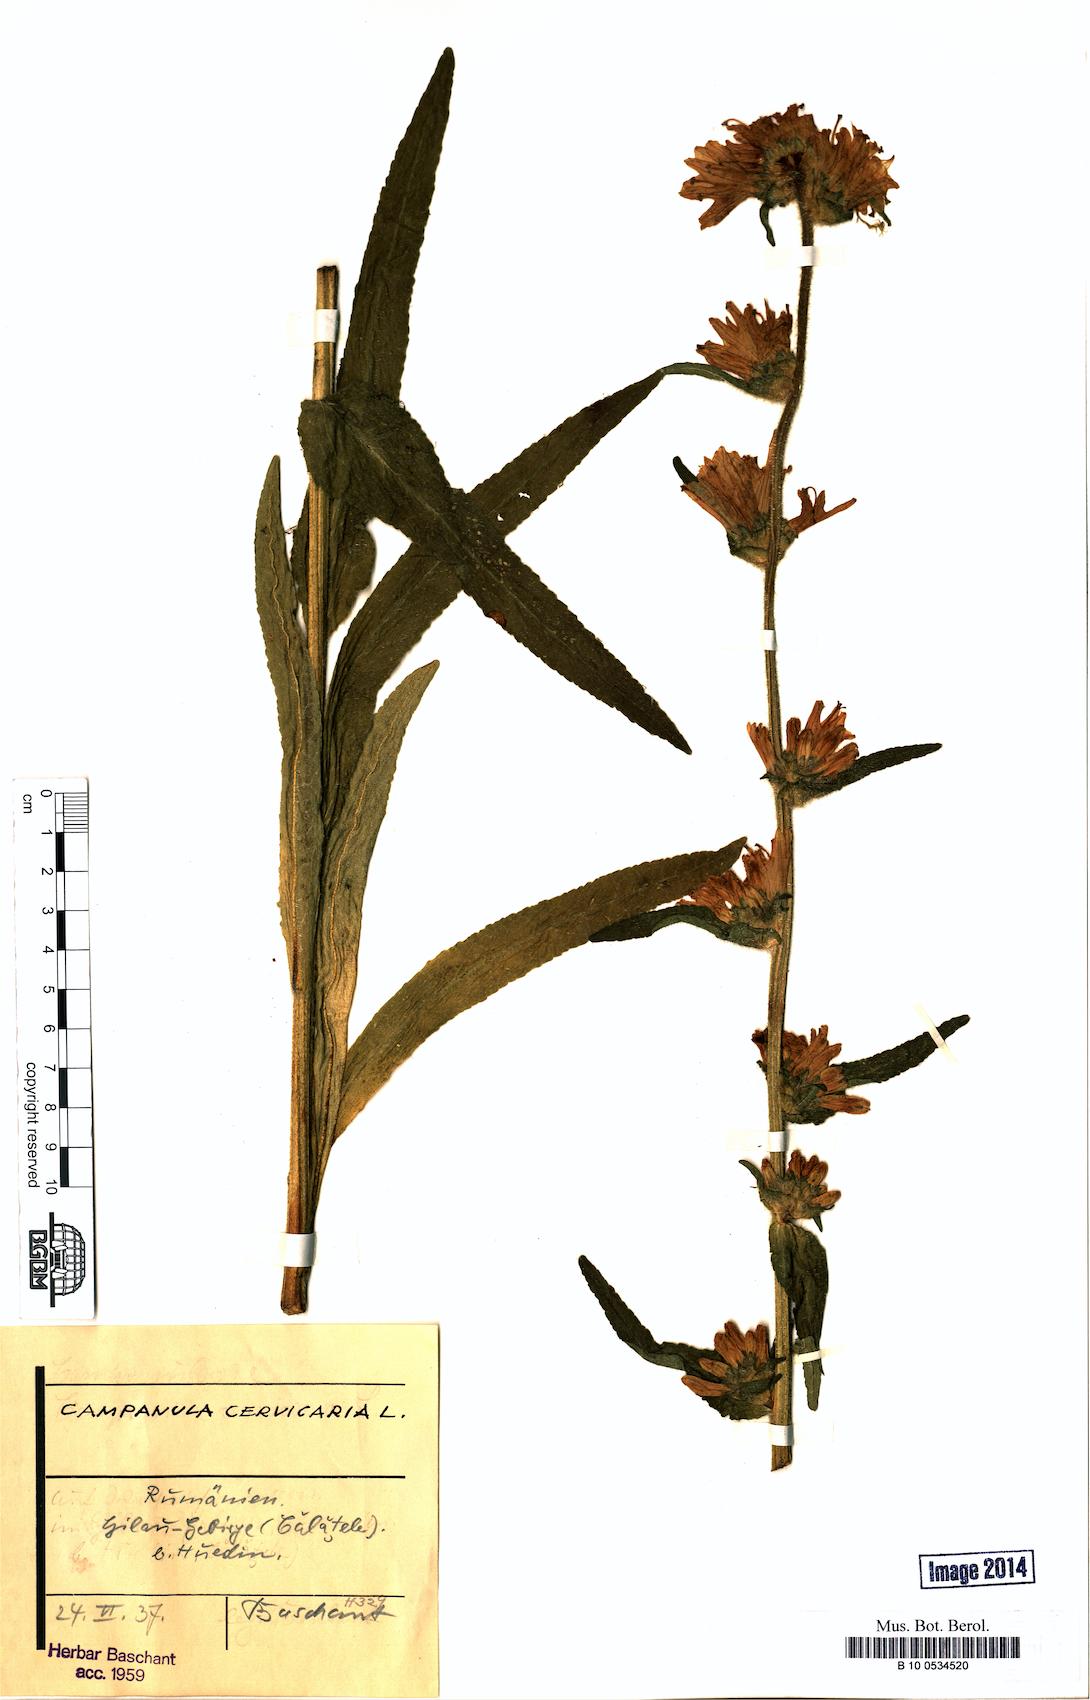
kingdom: Plantae
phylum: Tracheophyta
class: Magnoliopsida
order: Asterales
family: Campanulaceae
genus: Campanula
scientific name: Campanula cervicaria
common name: Bristly bellflower
